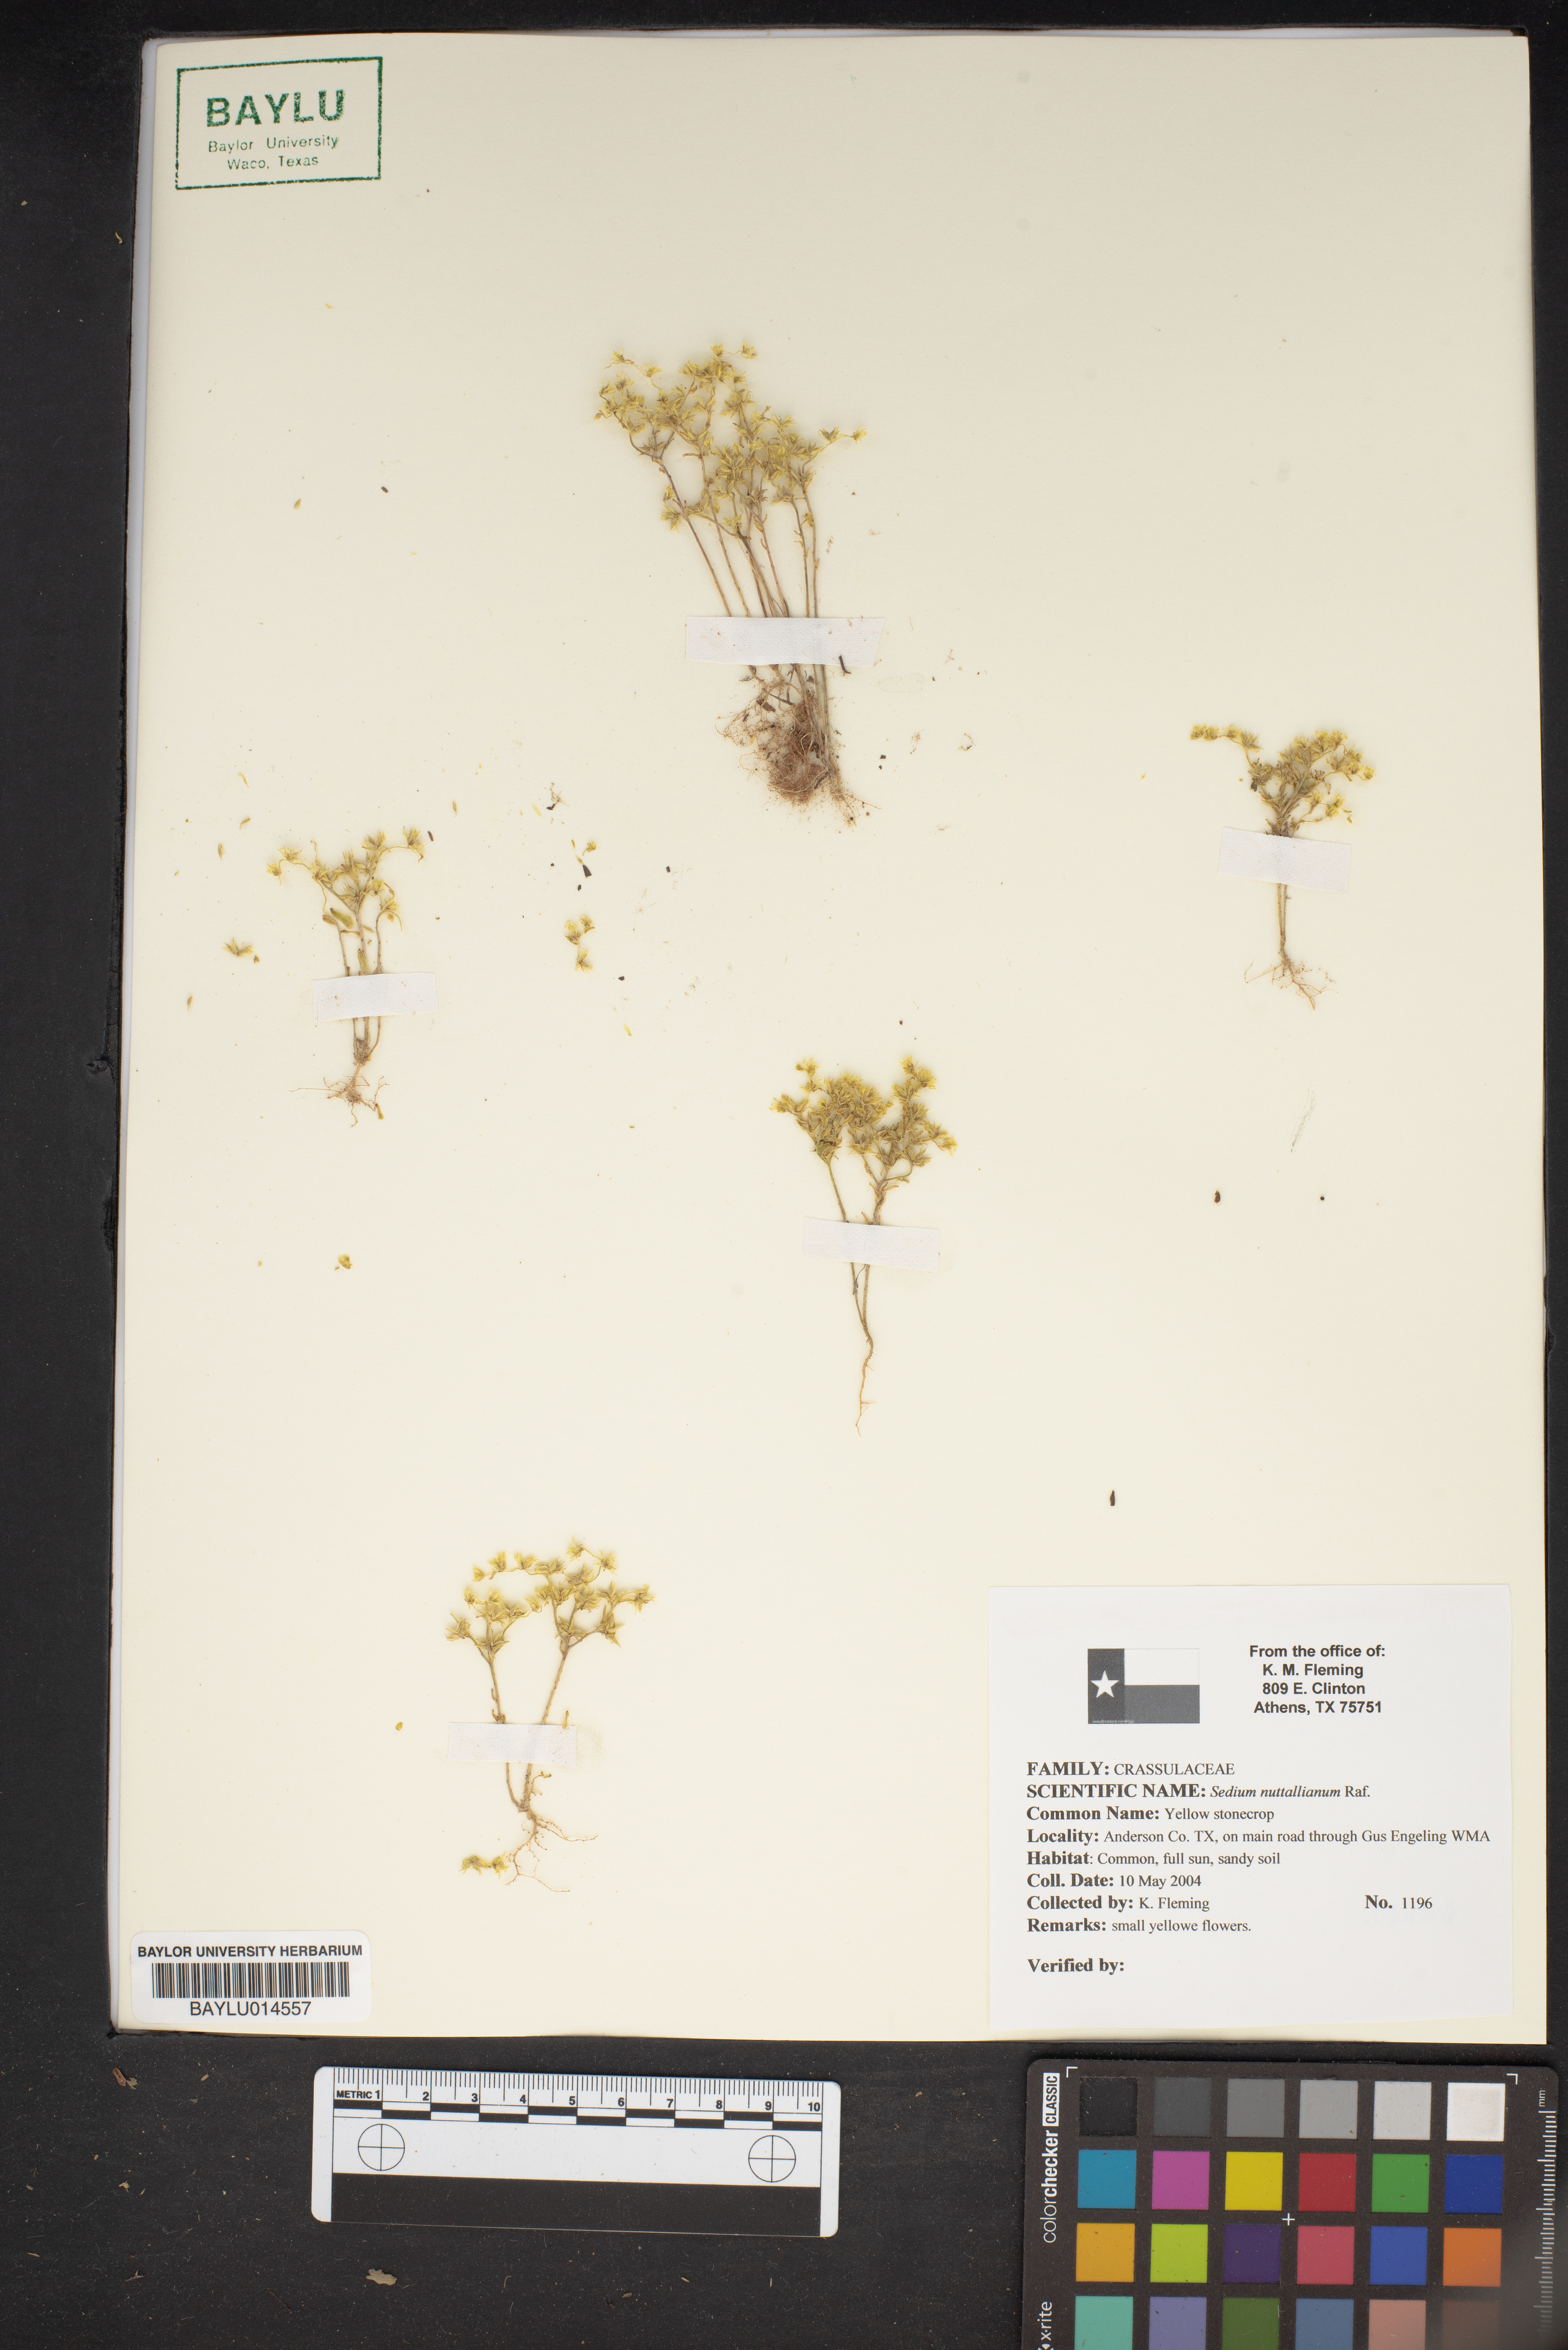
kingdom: Plantae
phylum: Tracheophyta
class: Magnoliopsida
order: Saxifragales
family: Crassulaceae
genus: Sedum
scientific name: Sedum nuttallii
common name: Yellow stonecrop
